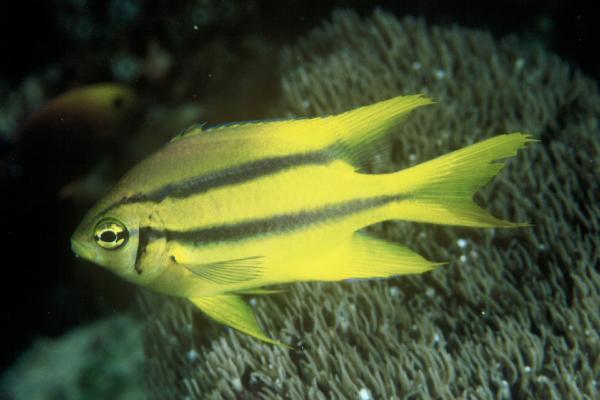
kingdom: Animalia
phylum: Chordata
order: Perciformes
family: Pomacentridae
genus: Neoglyphidodon
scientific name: Neoglyphidodon nigroris
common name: Behn's damsel
